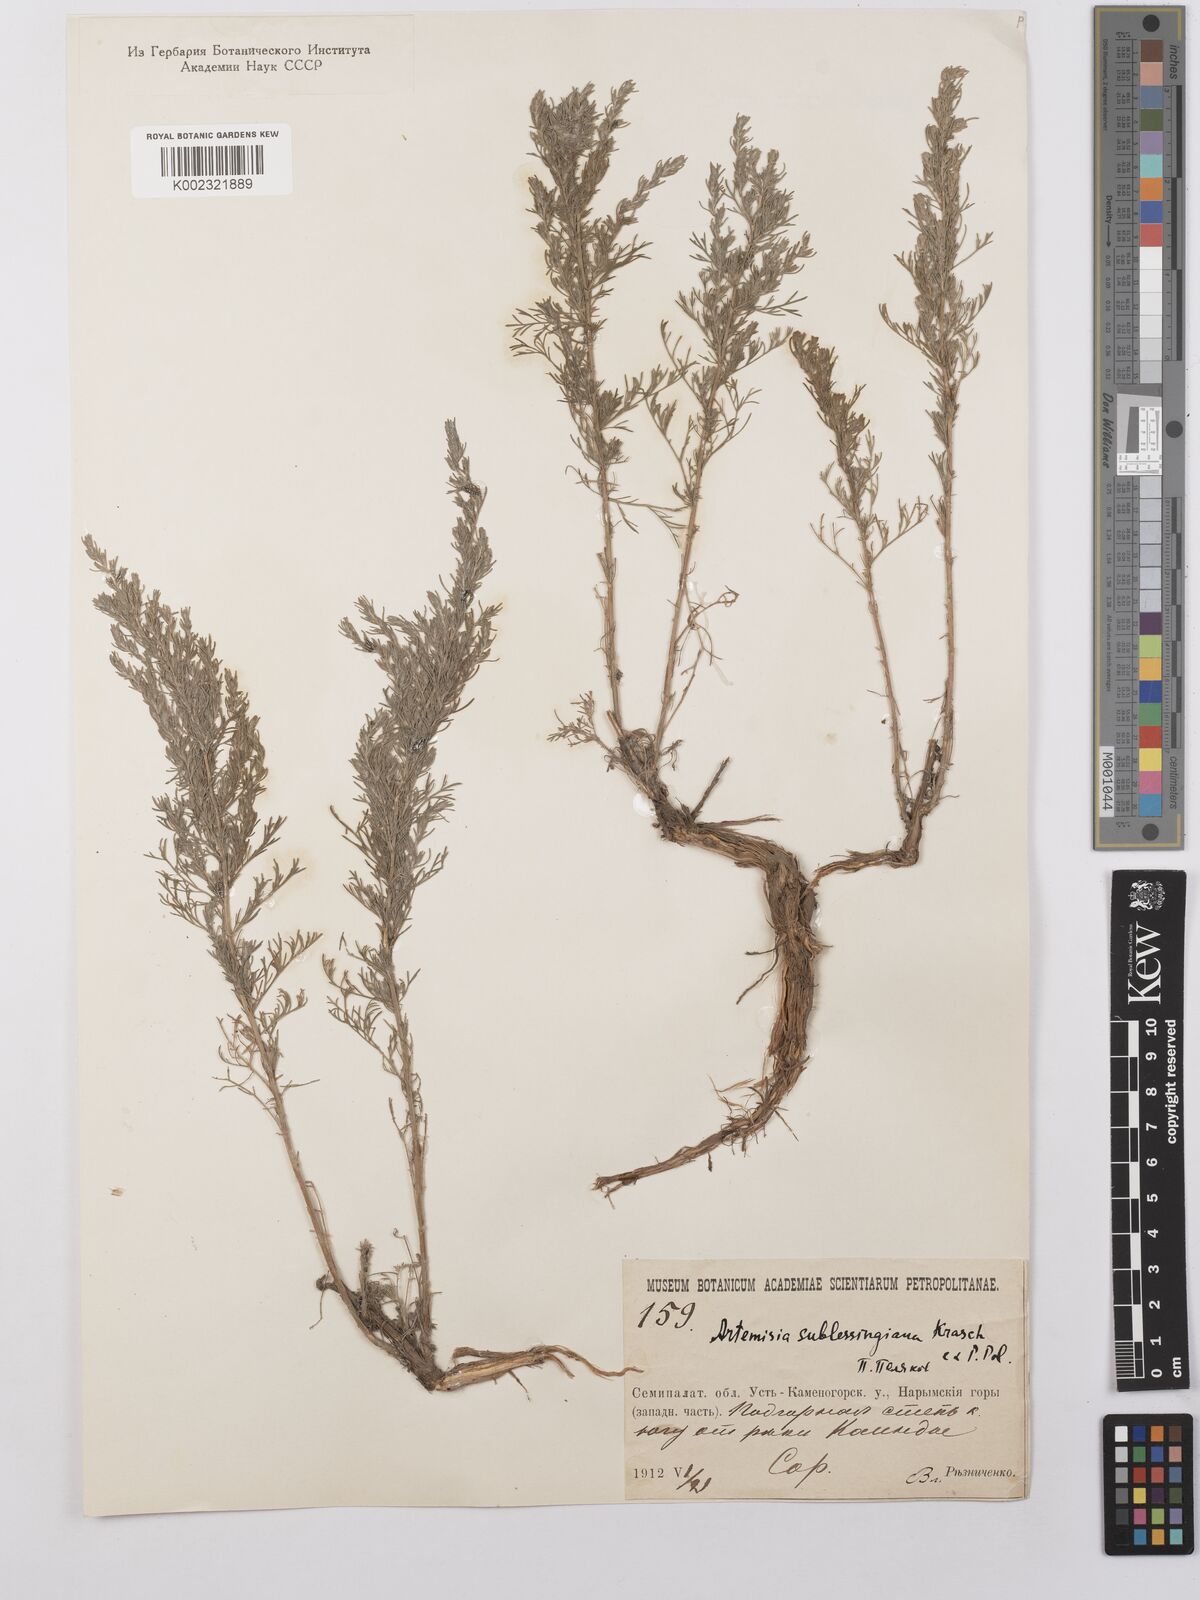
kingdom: Plantae
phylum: Tracheophyta
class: Magnoliopsida
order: Asterales
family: Asteraceae
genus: Artemisia
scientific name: Artemisia sublessingiana
